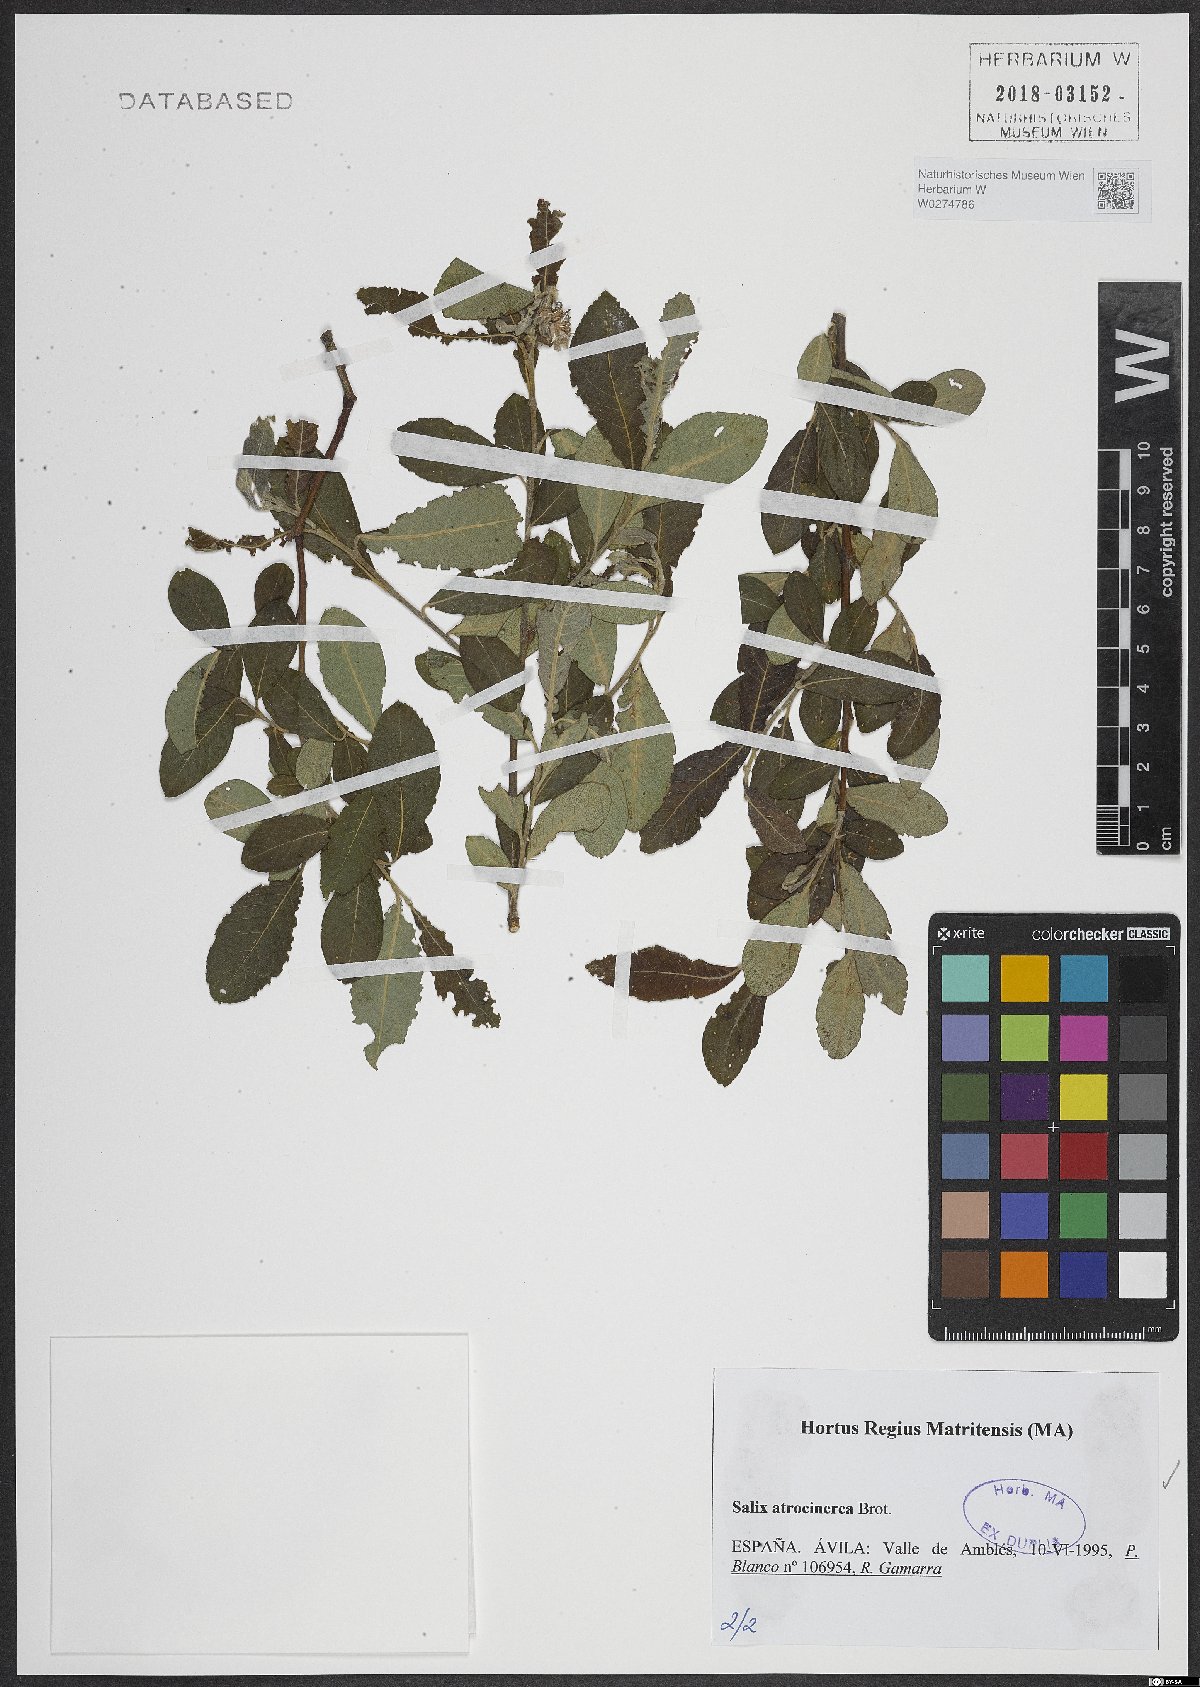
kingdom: Plantae
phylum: Tracheophyta
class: Magnoliopsida
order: Malpighiales
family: Salicaceae
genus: Salix
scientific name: Salix atrocinerea
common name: Rusty willow
